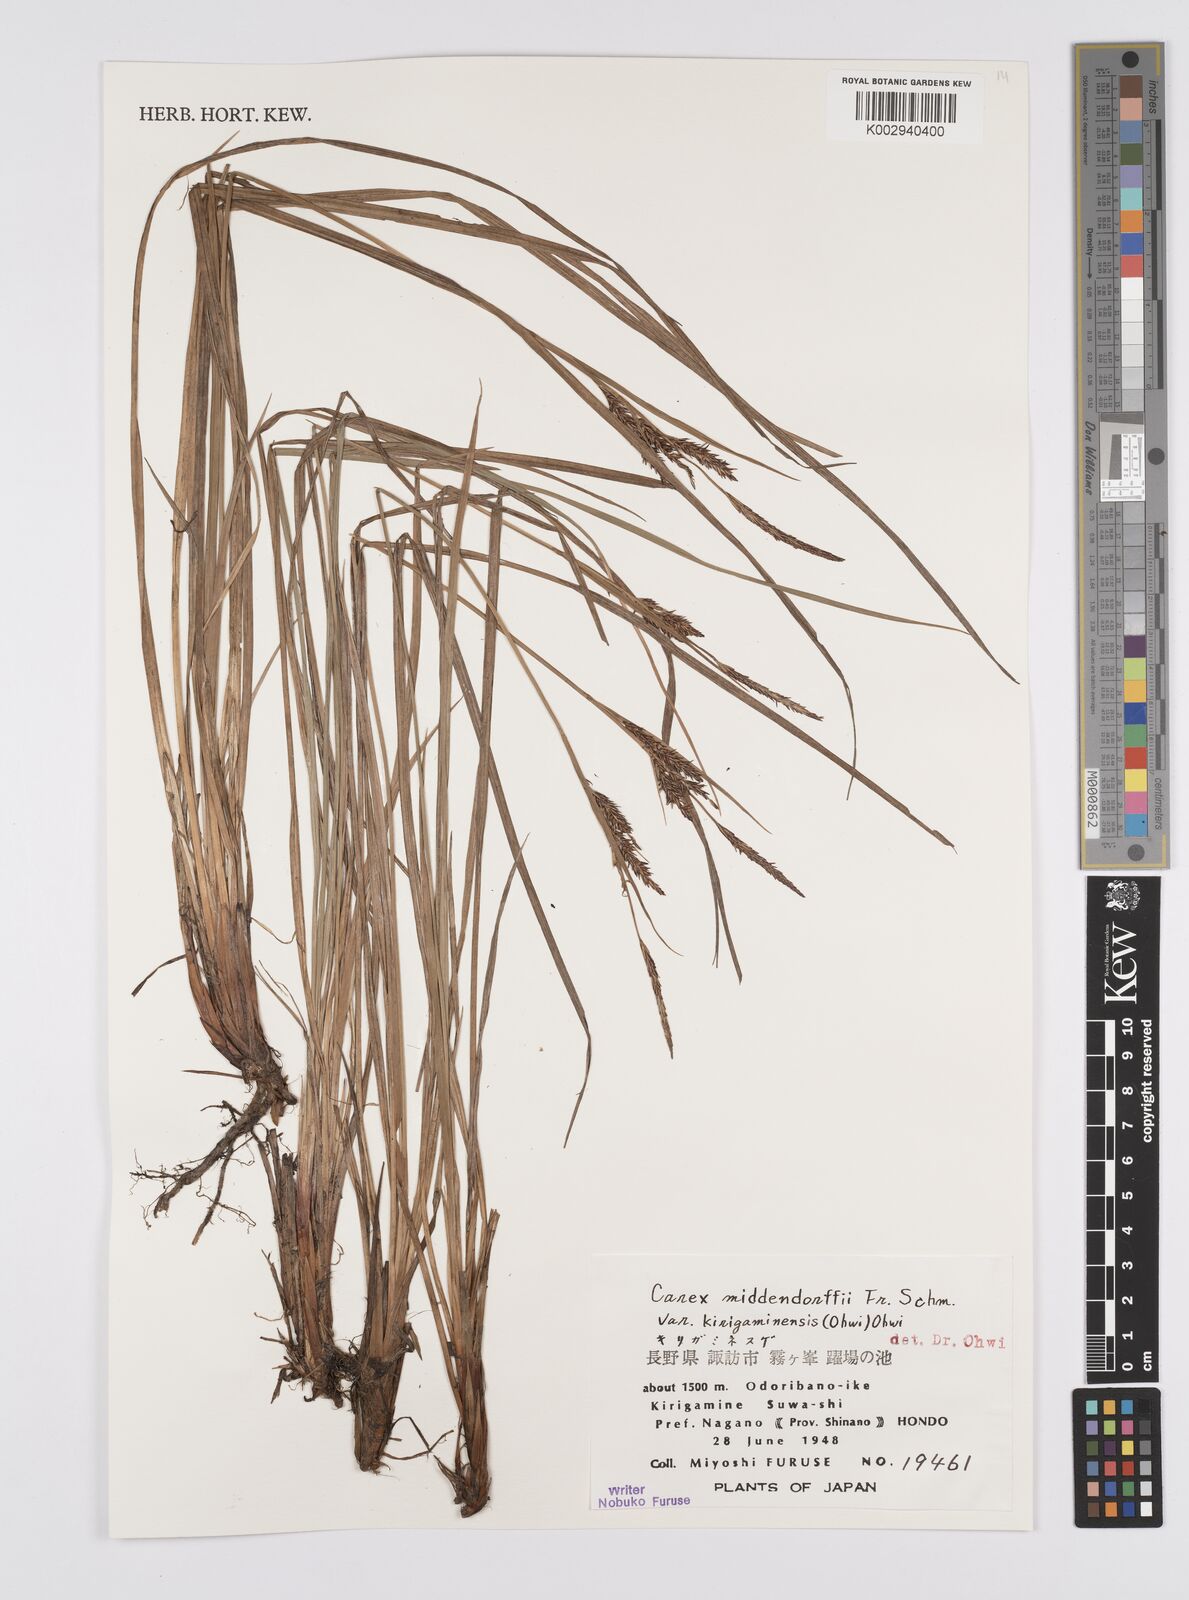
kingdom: Plantae
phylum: Tracheophyta
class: Liliopsida
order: Poales
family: Cyperaceae
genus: Carex
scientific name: Carex middendorffii
